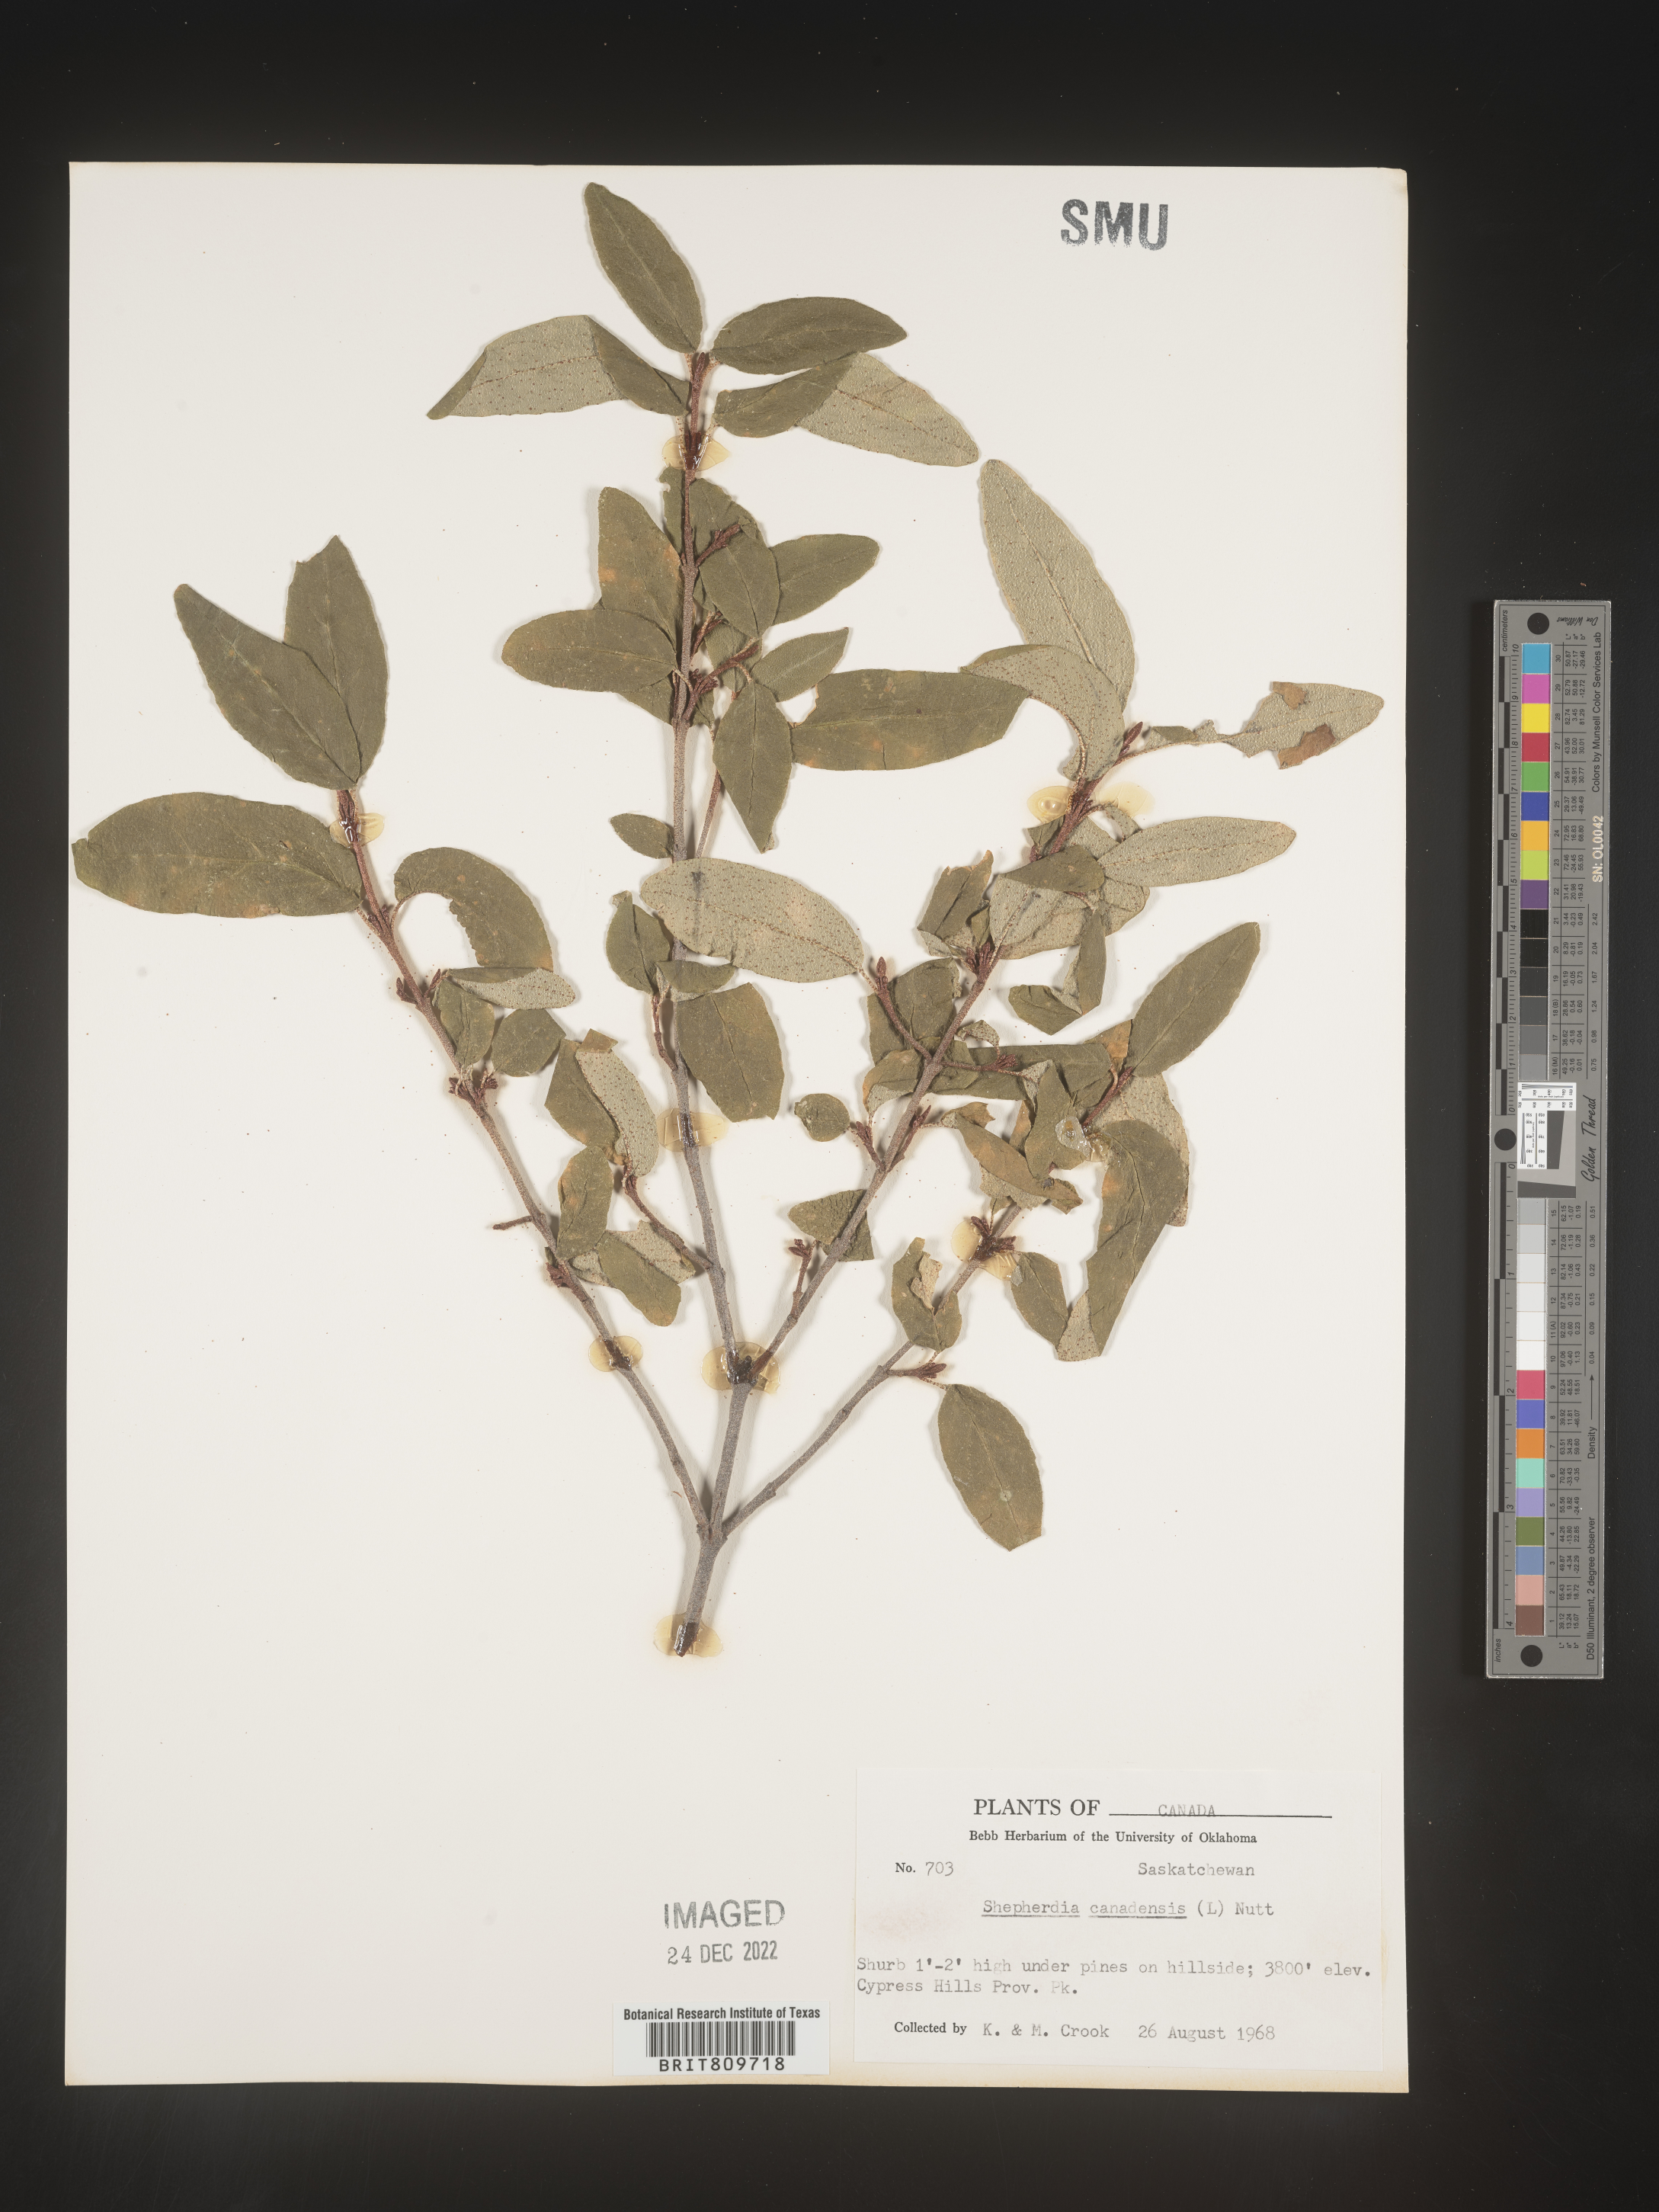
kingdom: Plantae
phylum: Tracheophyta
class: Magnoliopsida
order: Rosales
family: Elaeagnaceae
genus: Shepherdia
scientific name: Shepherdia canadensis
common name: Soapberry
